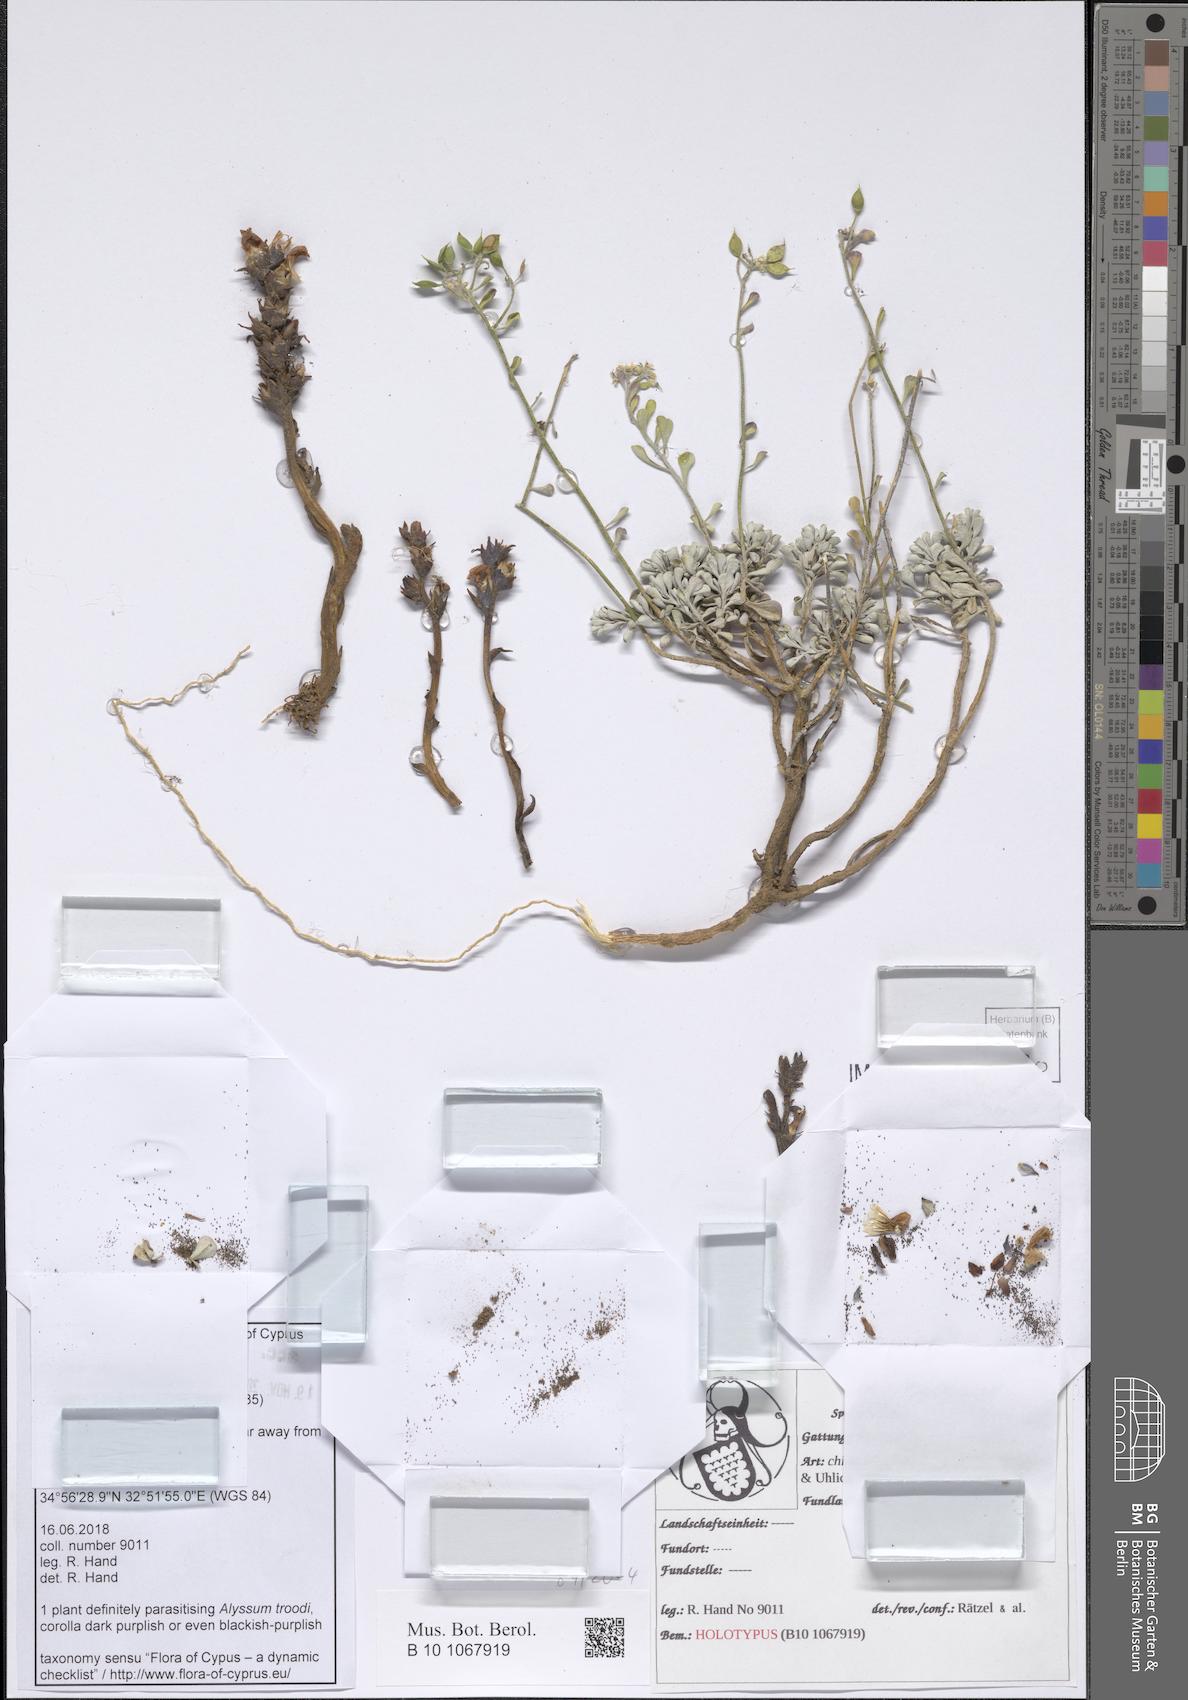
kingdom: Plantae
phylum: Tracheophyta
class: Magnoliopsida
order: Lamiales
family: Orobanchaceae
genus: Phelipanche
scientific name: Phelipanche chionistrae
